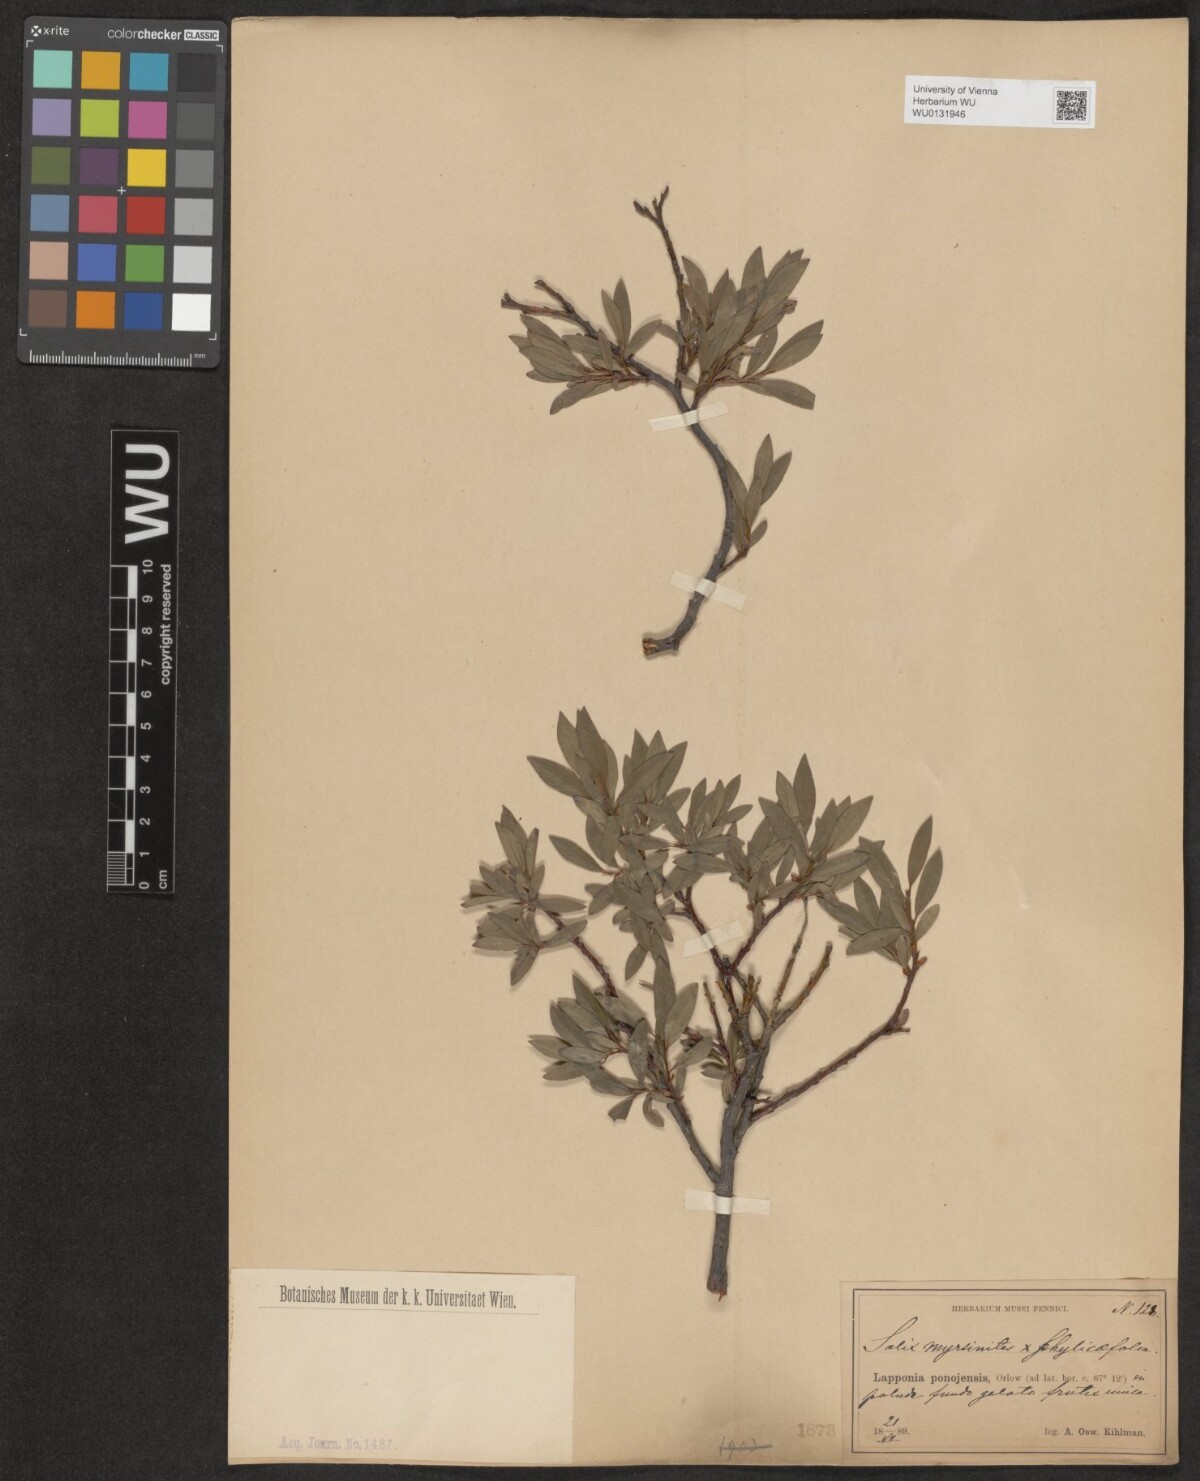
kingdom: Plantae
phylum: Tracheophyta
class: Magnoliopsida
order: Malpighiales
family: Salicaceae
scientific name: Salicaceae
